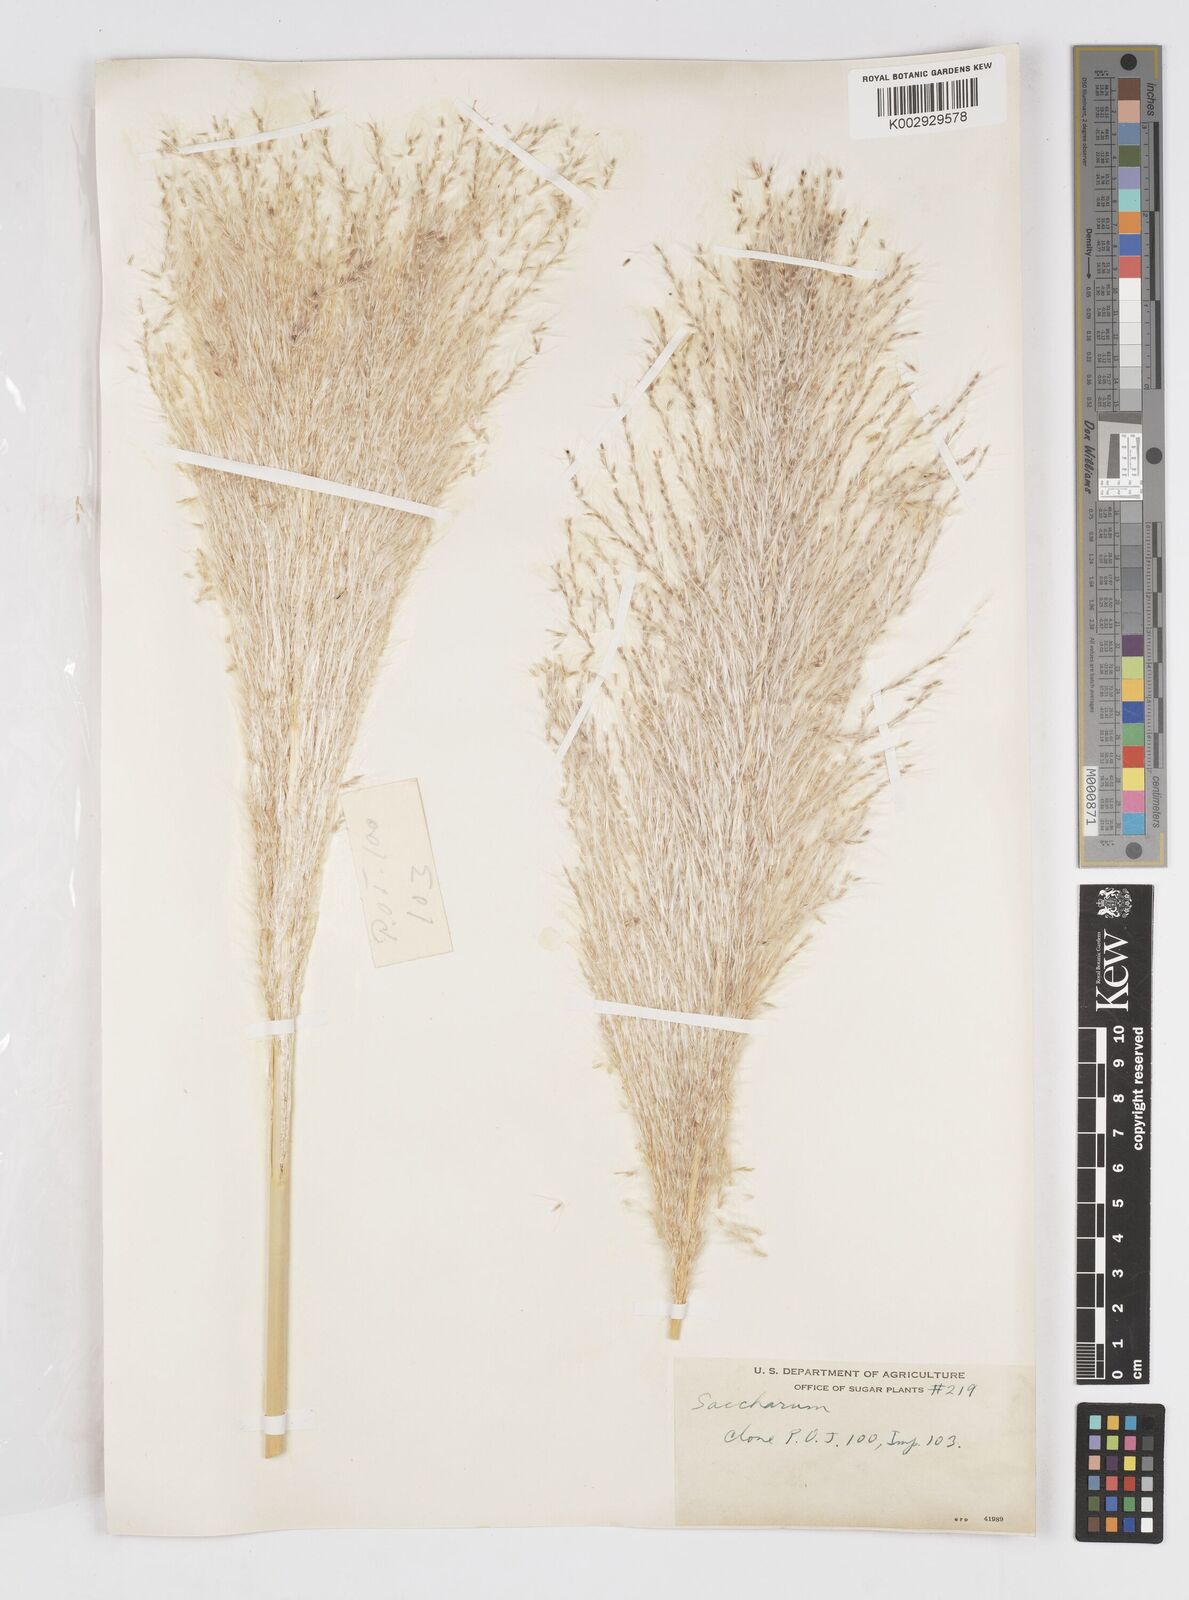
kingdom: Plantae
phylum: Tracheophyta
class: Liliopsida
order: Poales
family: Poaceae
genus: Saccharum
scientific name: Saccharum officinarum
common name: Sugarcane
